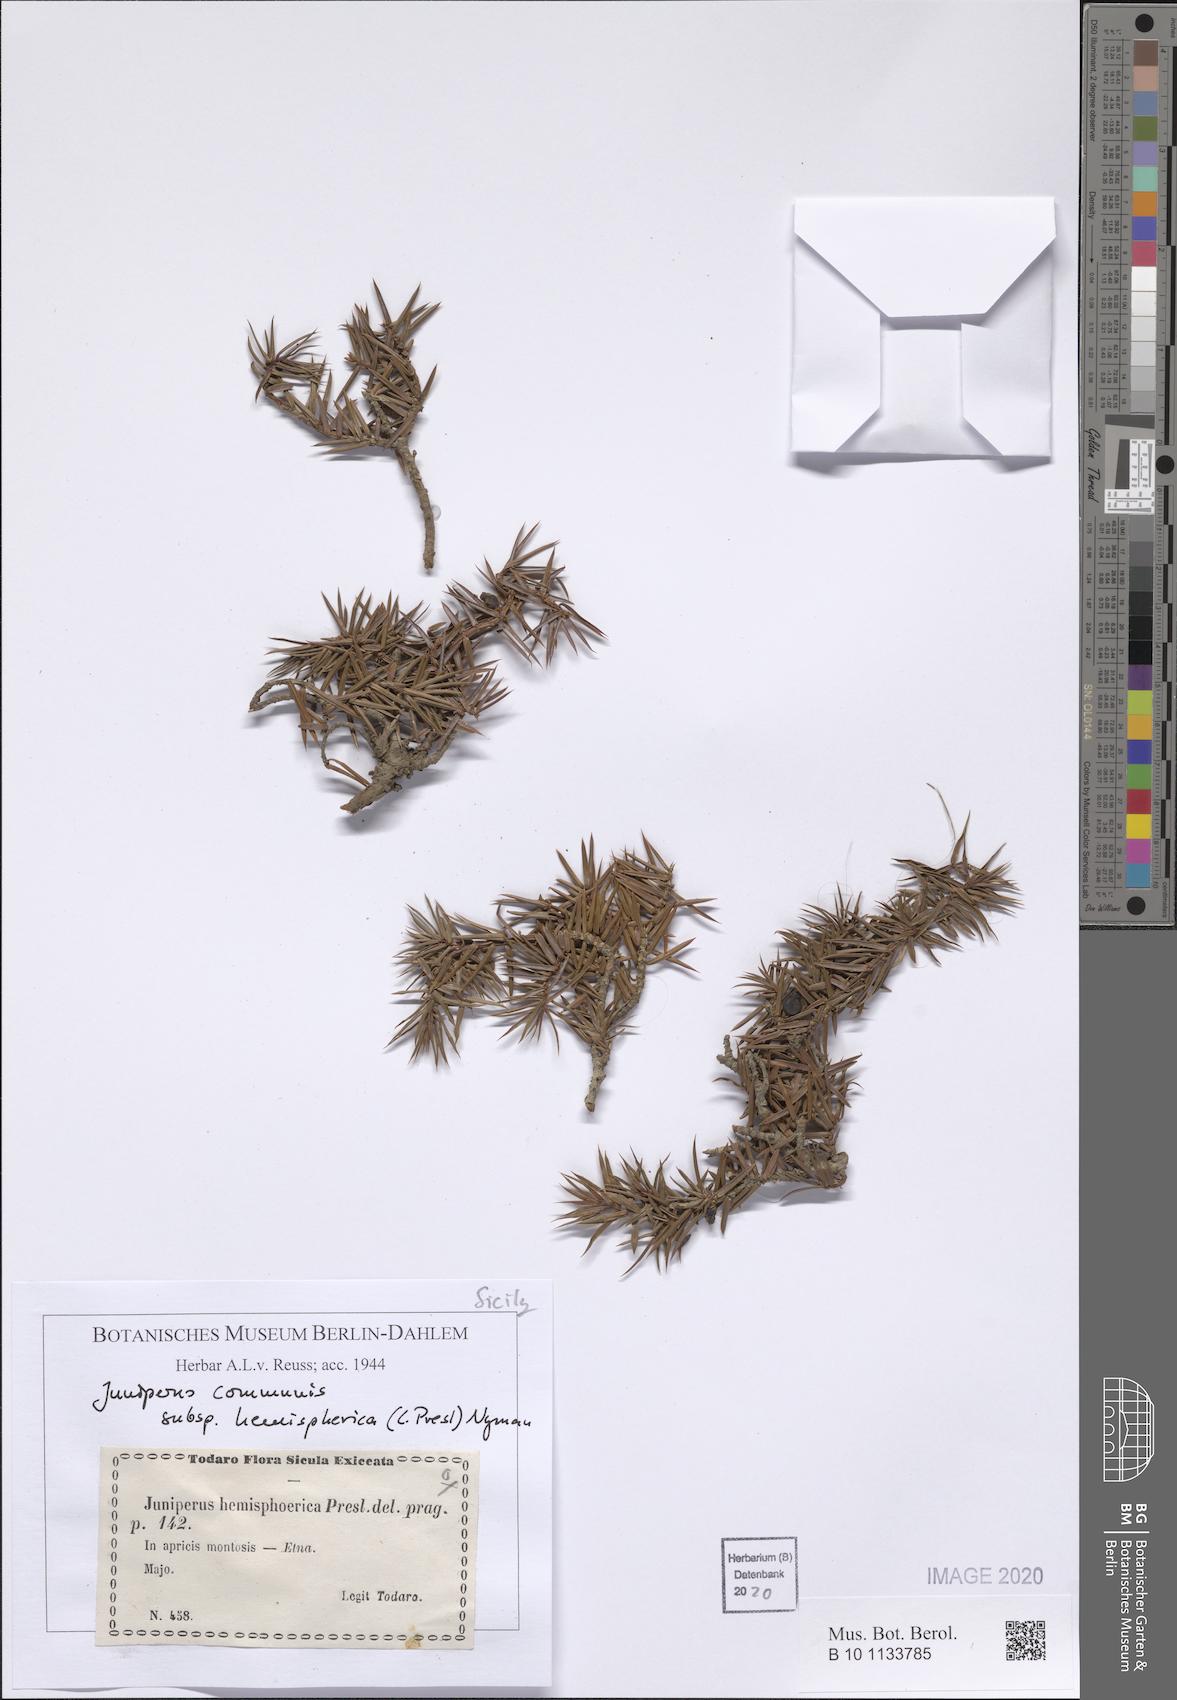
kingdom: Plantae
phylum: Tracheophyta
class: Pinopsida
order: Pinales
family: Cupressaceae
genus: Juniperus
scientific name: Juniperus communis
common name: Common juniper
